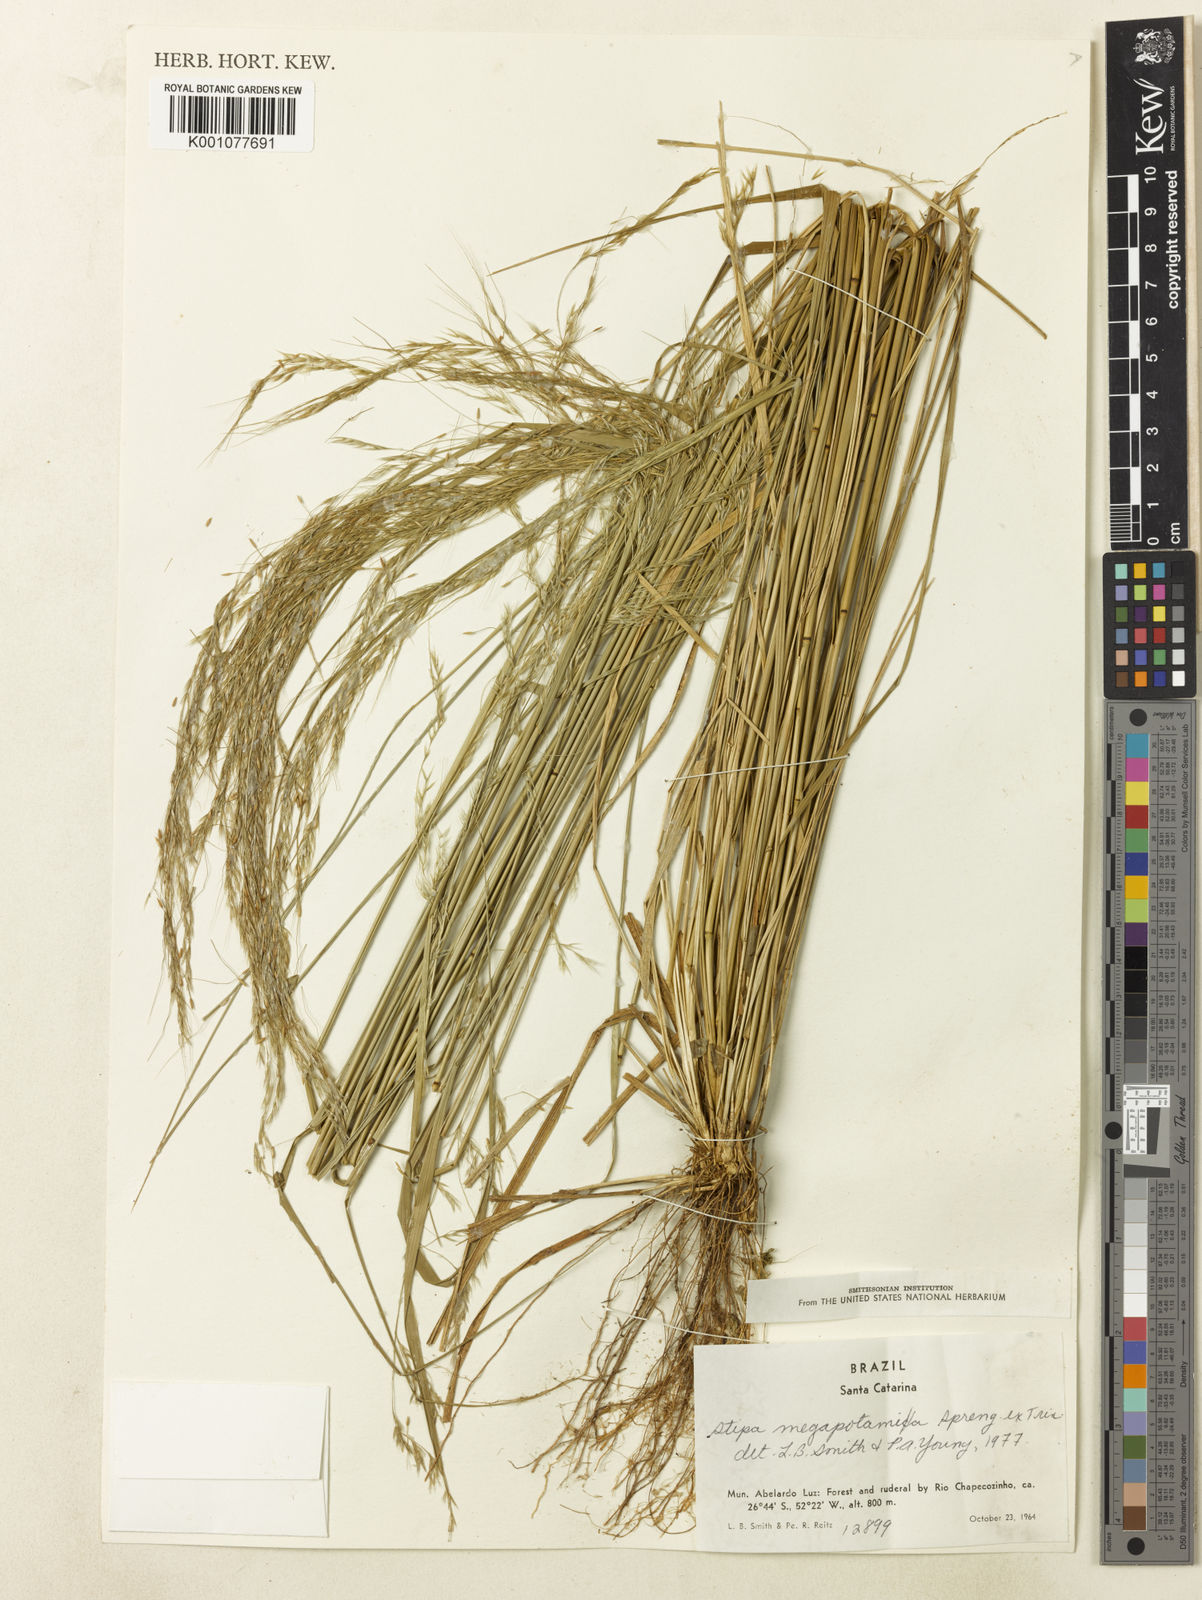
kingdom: Plantae
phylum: Tracheophyta
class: Liliopsida
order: Poales
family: Poaceae
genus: Jarava
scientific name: Jarava filifolia
